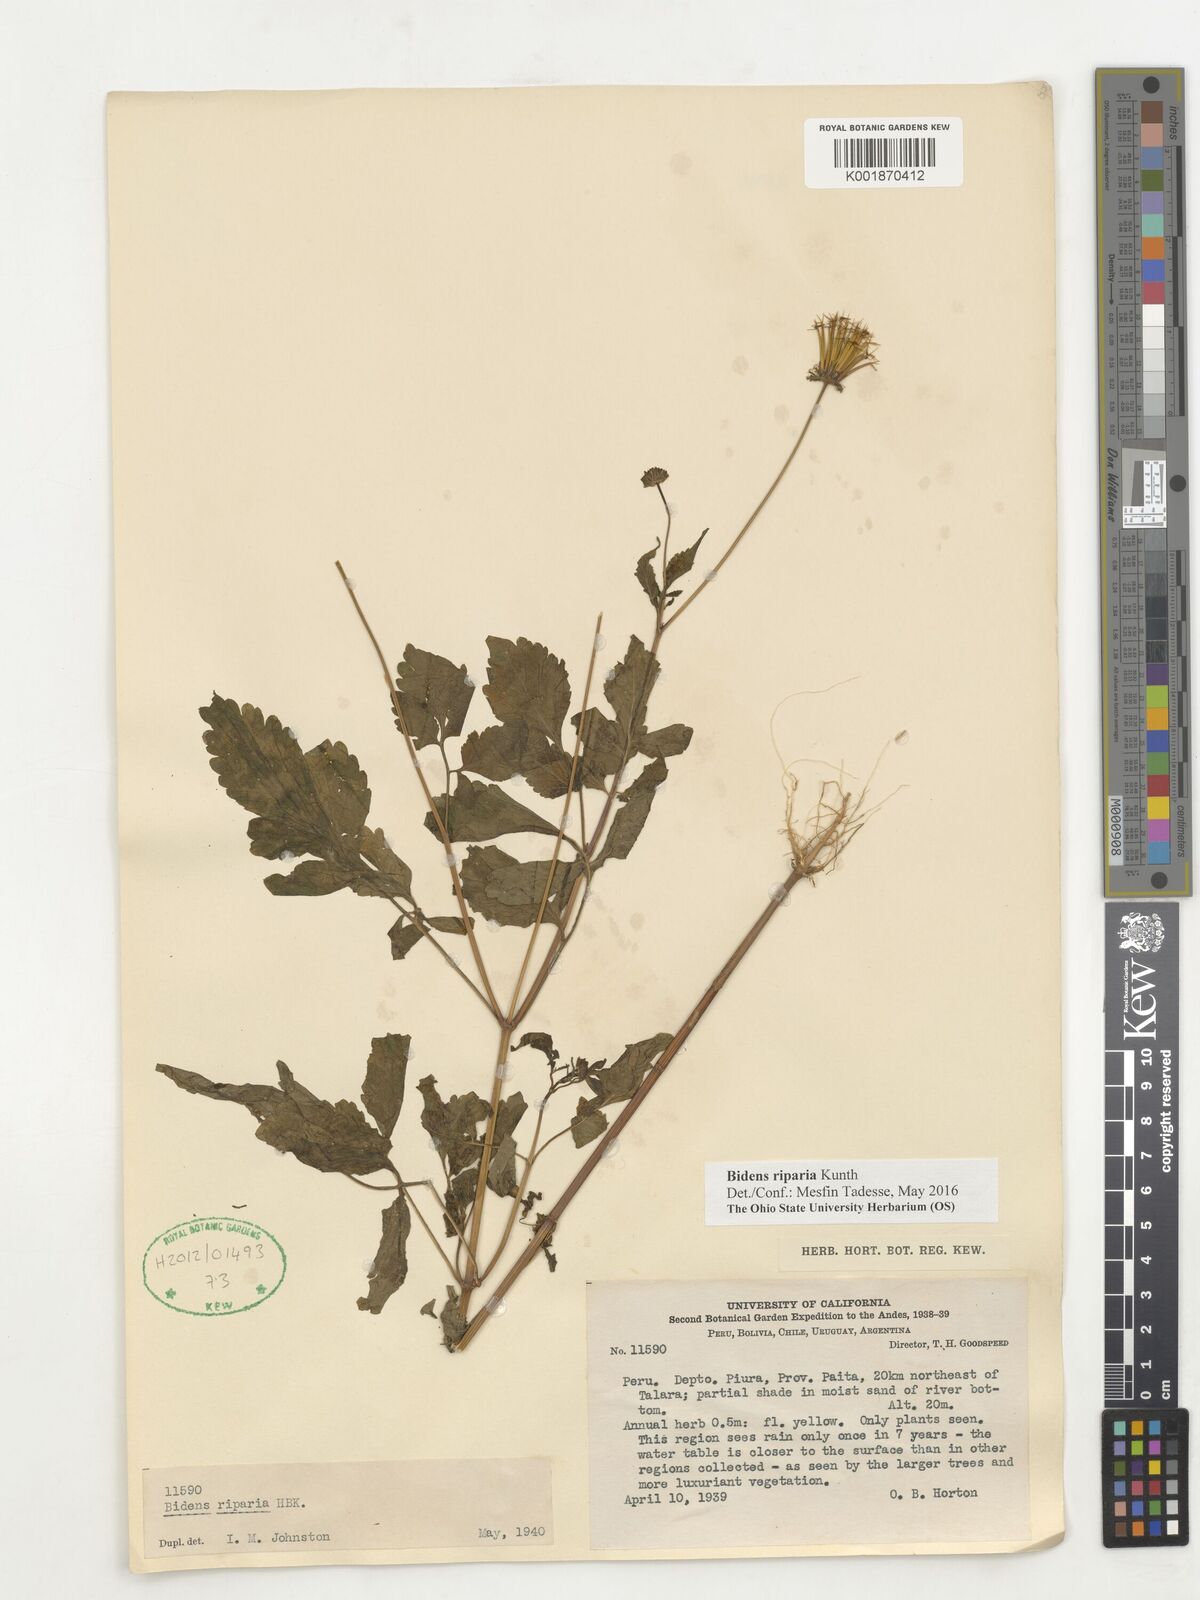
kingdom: Plantae
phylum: Tracheophyta
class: Magnoliopsida
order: Asterales
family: Asteraceae
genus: Bidens
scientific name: Bidens riparia
